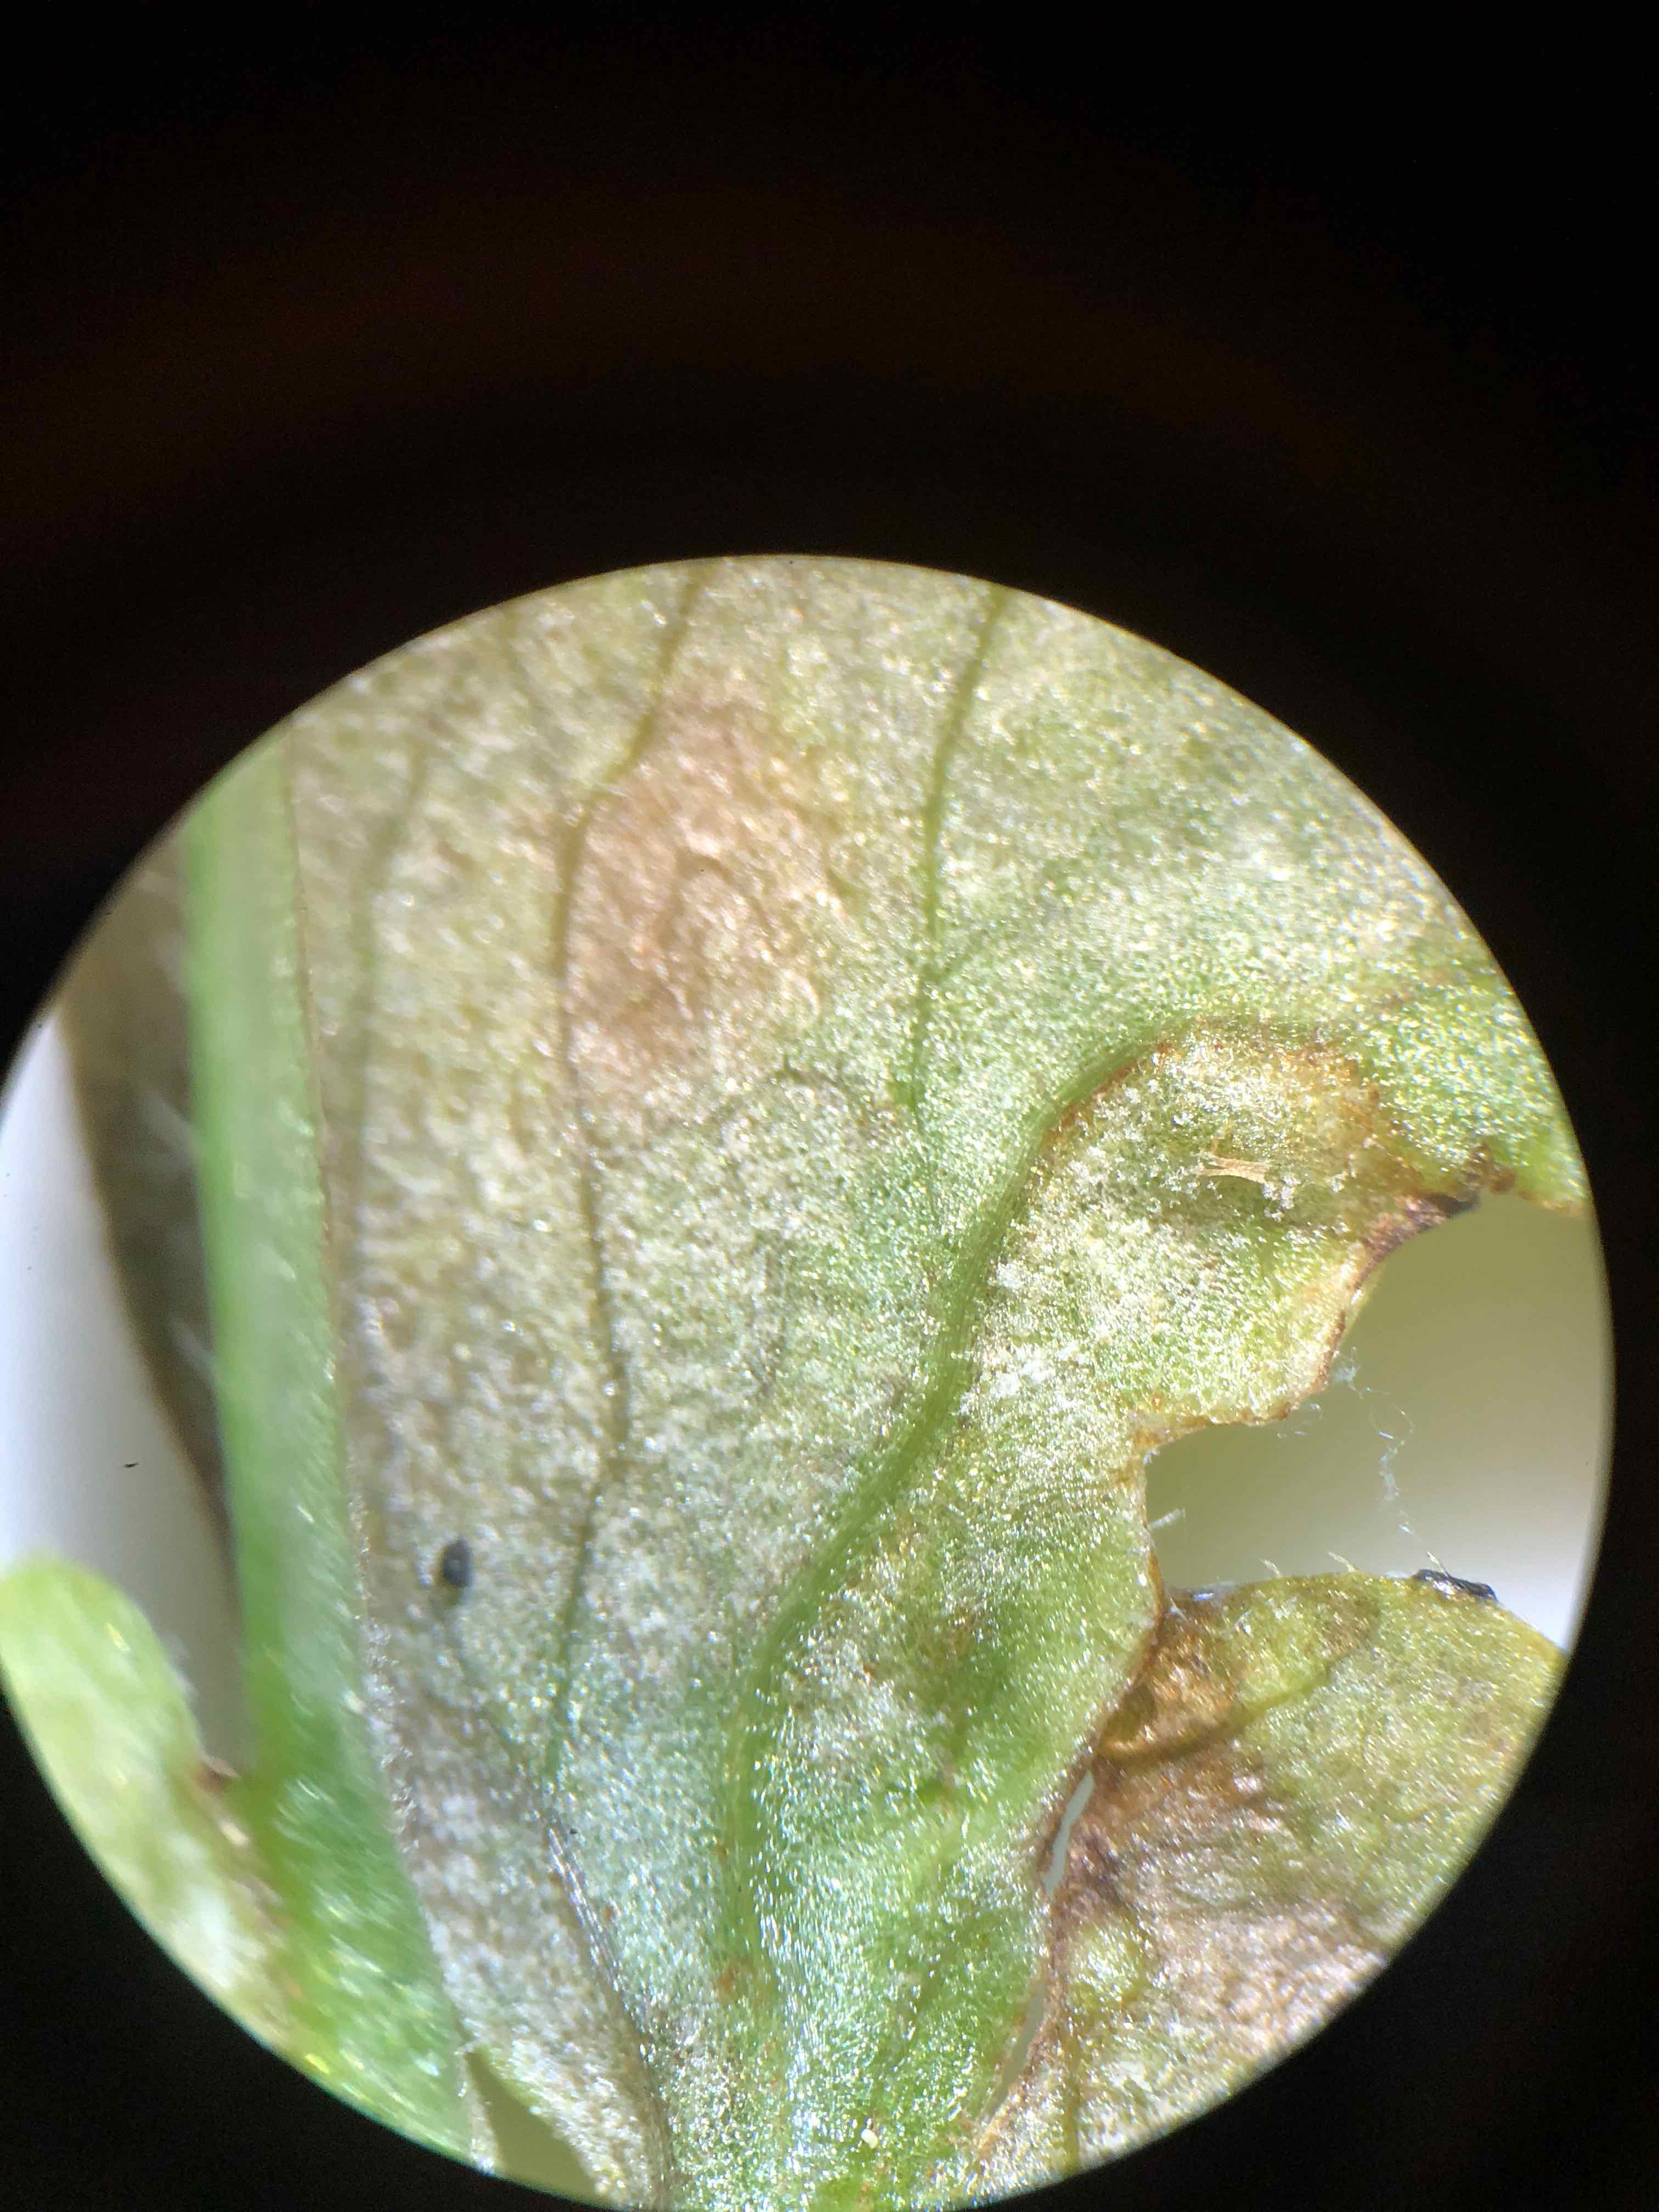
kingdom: Chromista
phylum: Oomycota
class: Peronosporea
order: Peronosporales
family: Peronosporaceae
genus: Plasmoverna
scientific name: Plasmoverna pygmaea
